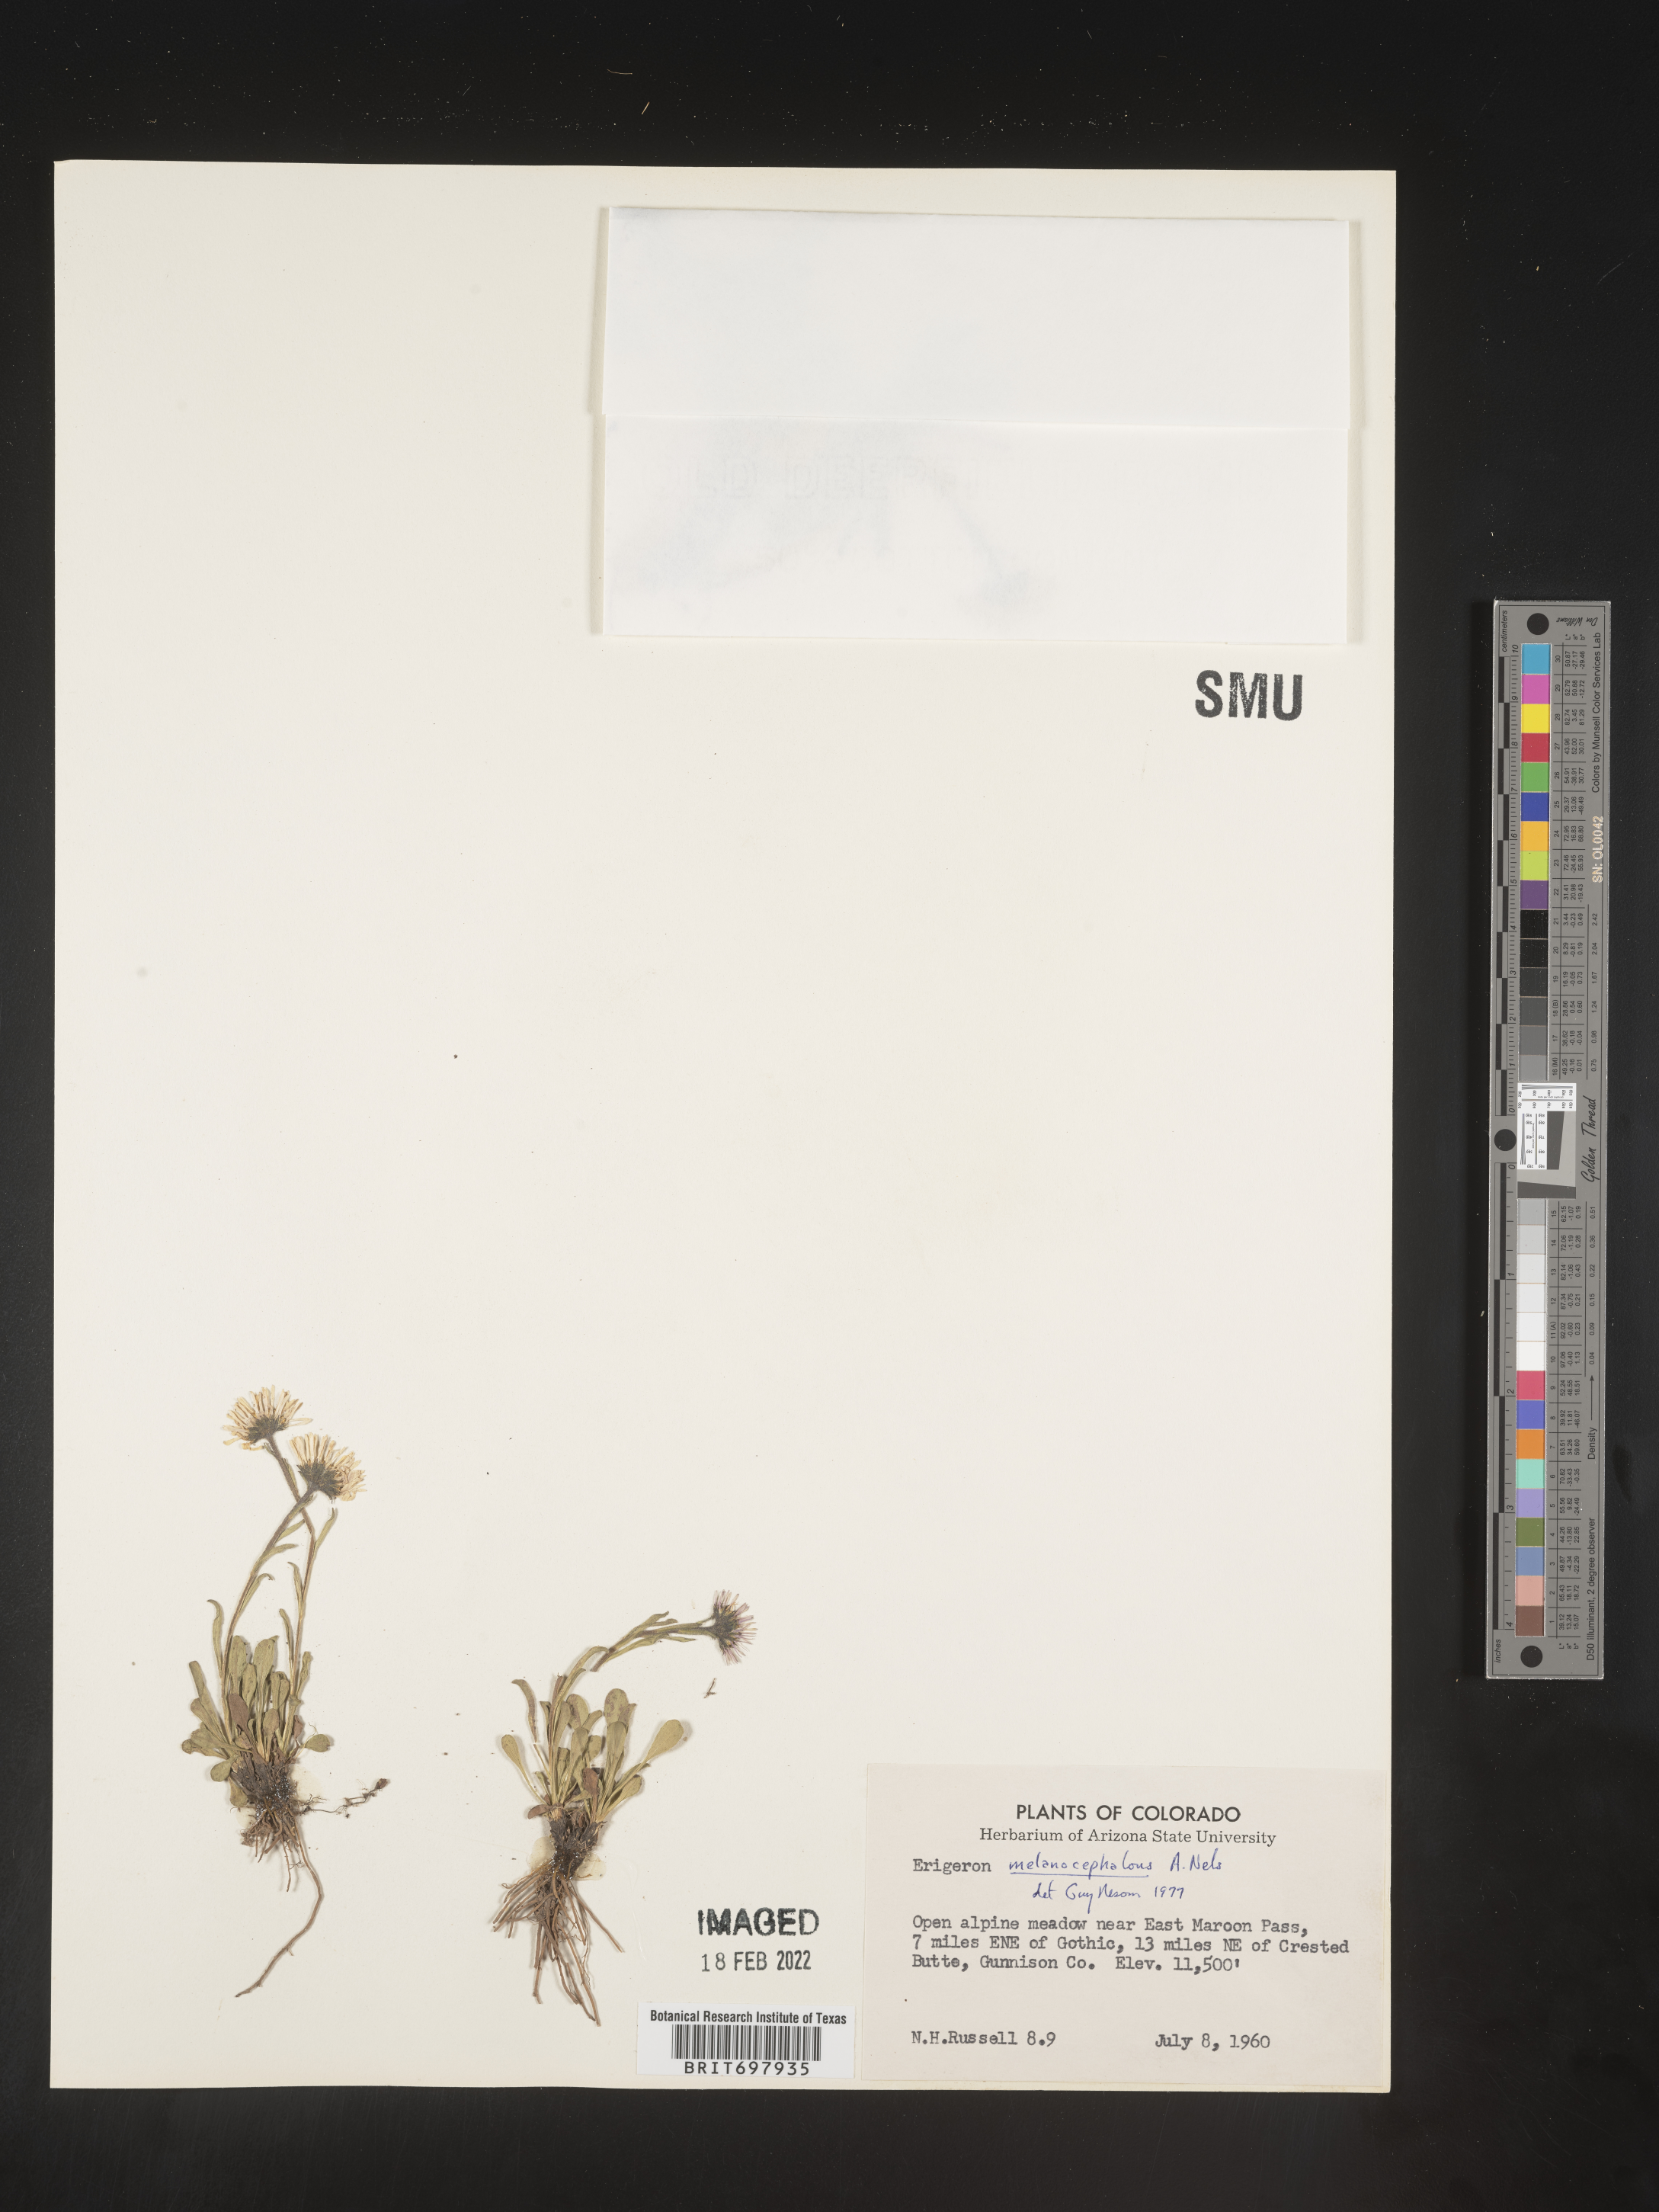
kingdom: Plantae
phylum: Tracheophyta
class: Magnoliopsida
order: Asterales
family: Asteraceae
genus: Erigeron
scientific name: Erigeron melanocephalus
